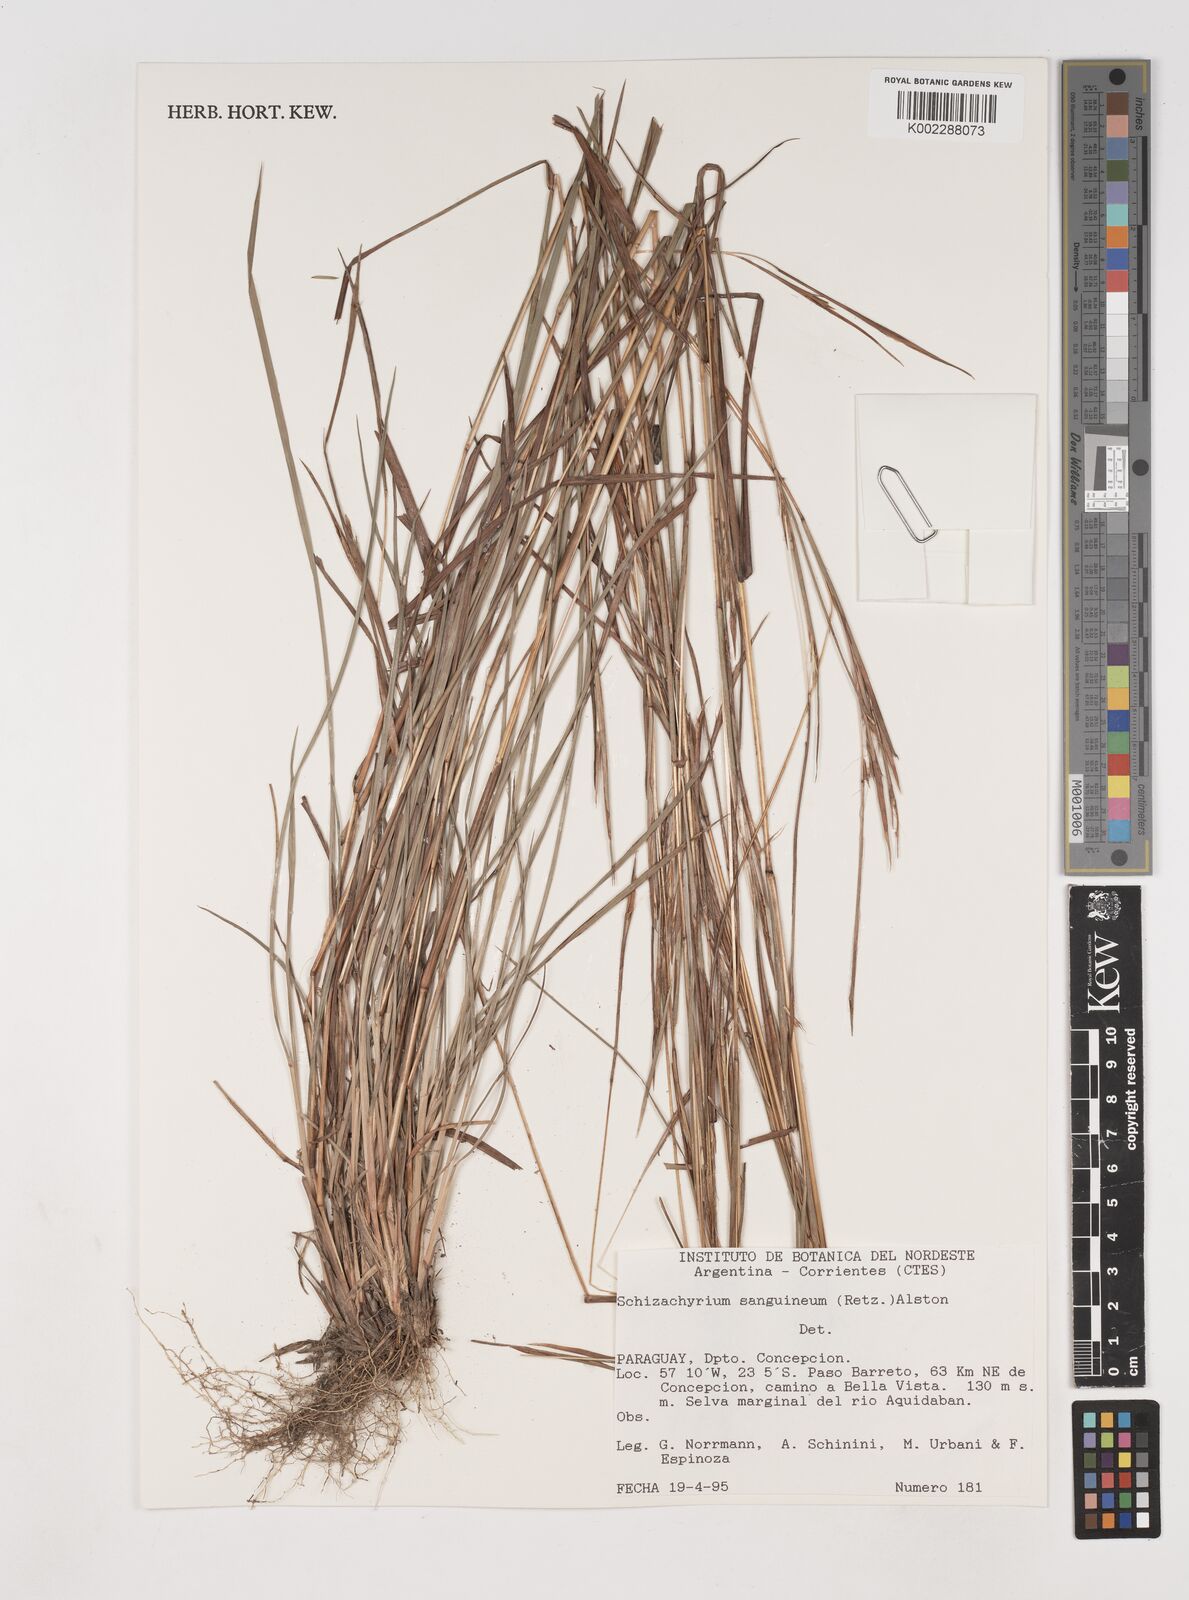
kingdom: Plantae
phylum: Tracheophyta
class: Liliopsida
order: Poales
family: Poaceae
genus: Schizachyrium
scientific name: Schizachyrium sanguineum
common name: Crimson bluestem
